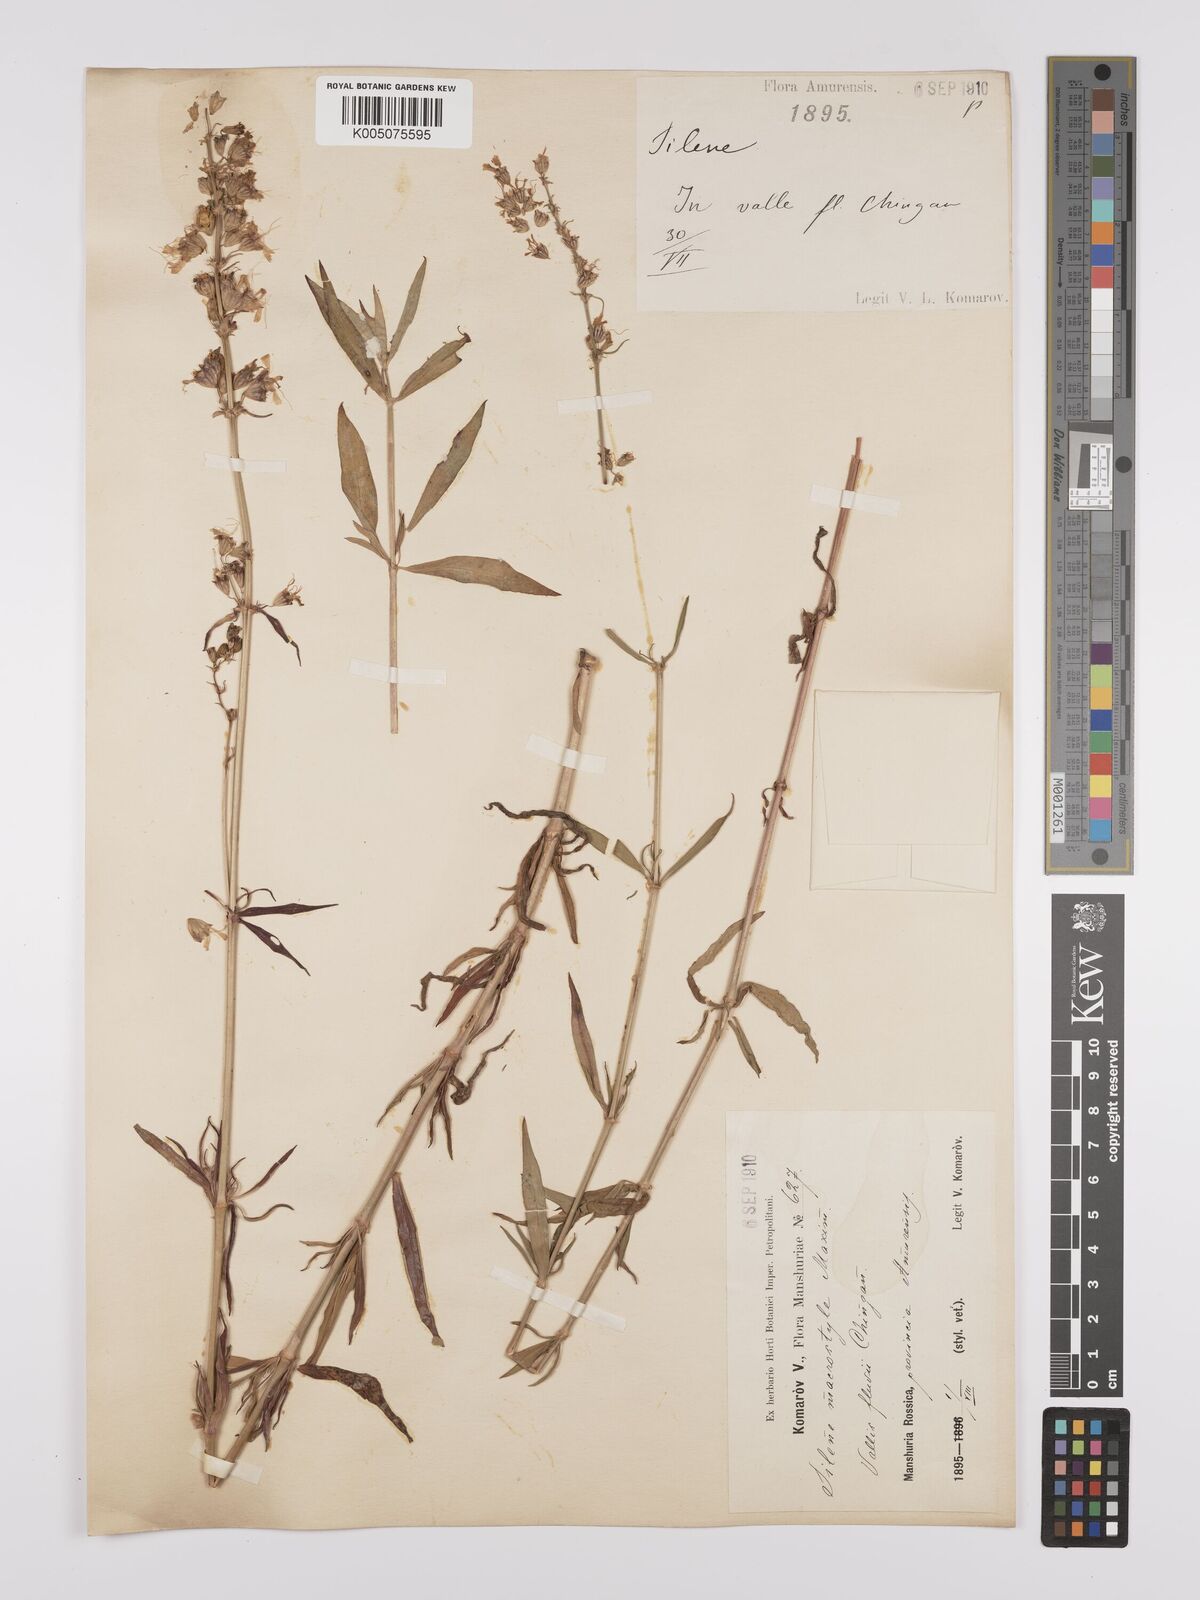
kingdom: Plantae
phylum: Tracheophyta
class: Magnoliopsida
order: Caryophyllales
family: Caryophyllaceae
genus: Silene
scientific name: Silene macrostyla
